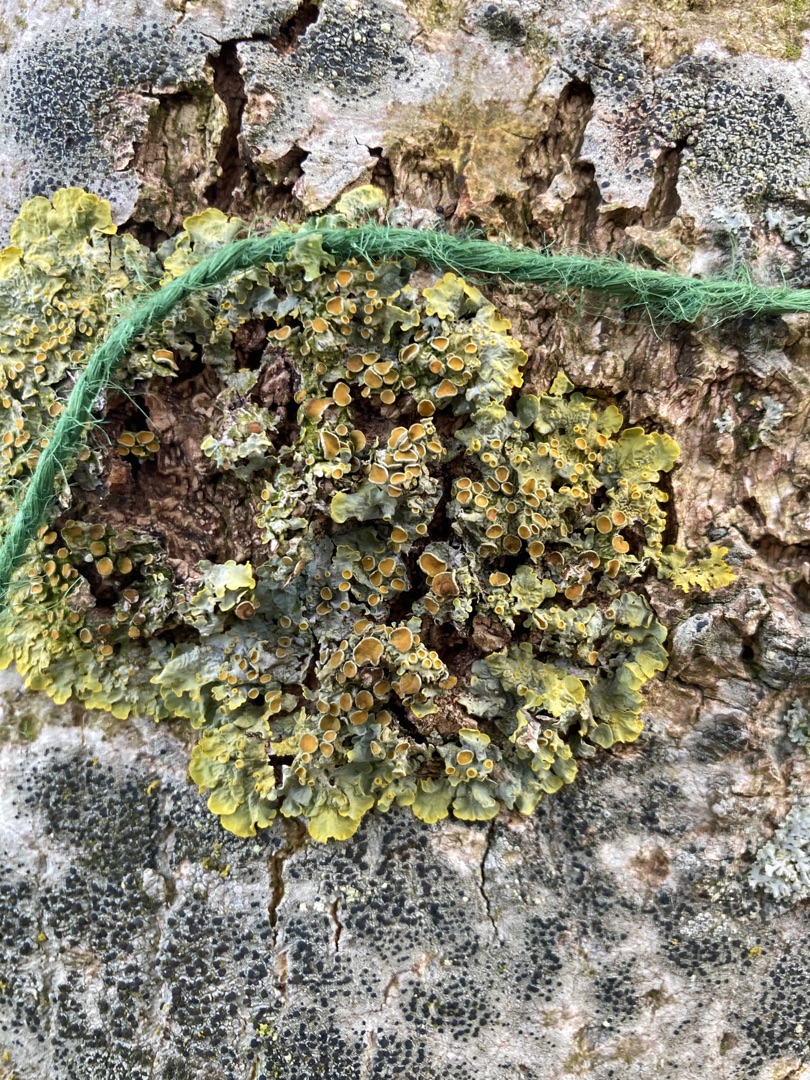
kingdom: Fungi
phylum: Ascomycota
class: Lecanoromycetes
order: Teloschistales
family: Teloschistaceae
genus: Xanthoria
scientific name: Xanthoria parietina
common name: Almindelig væggelav
